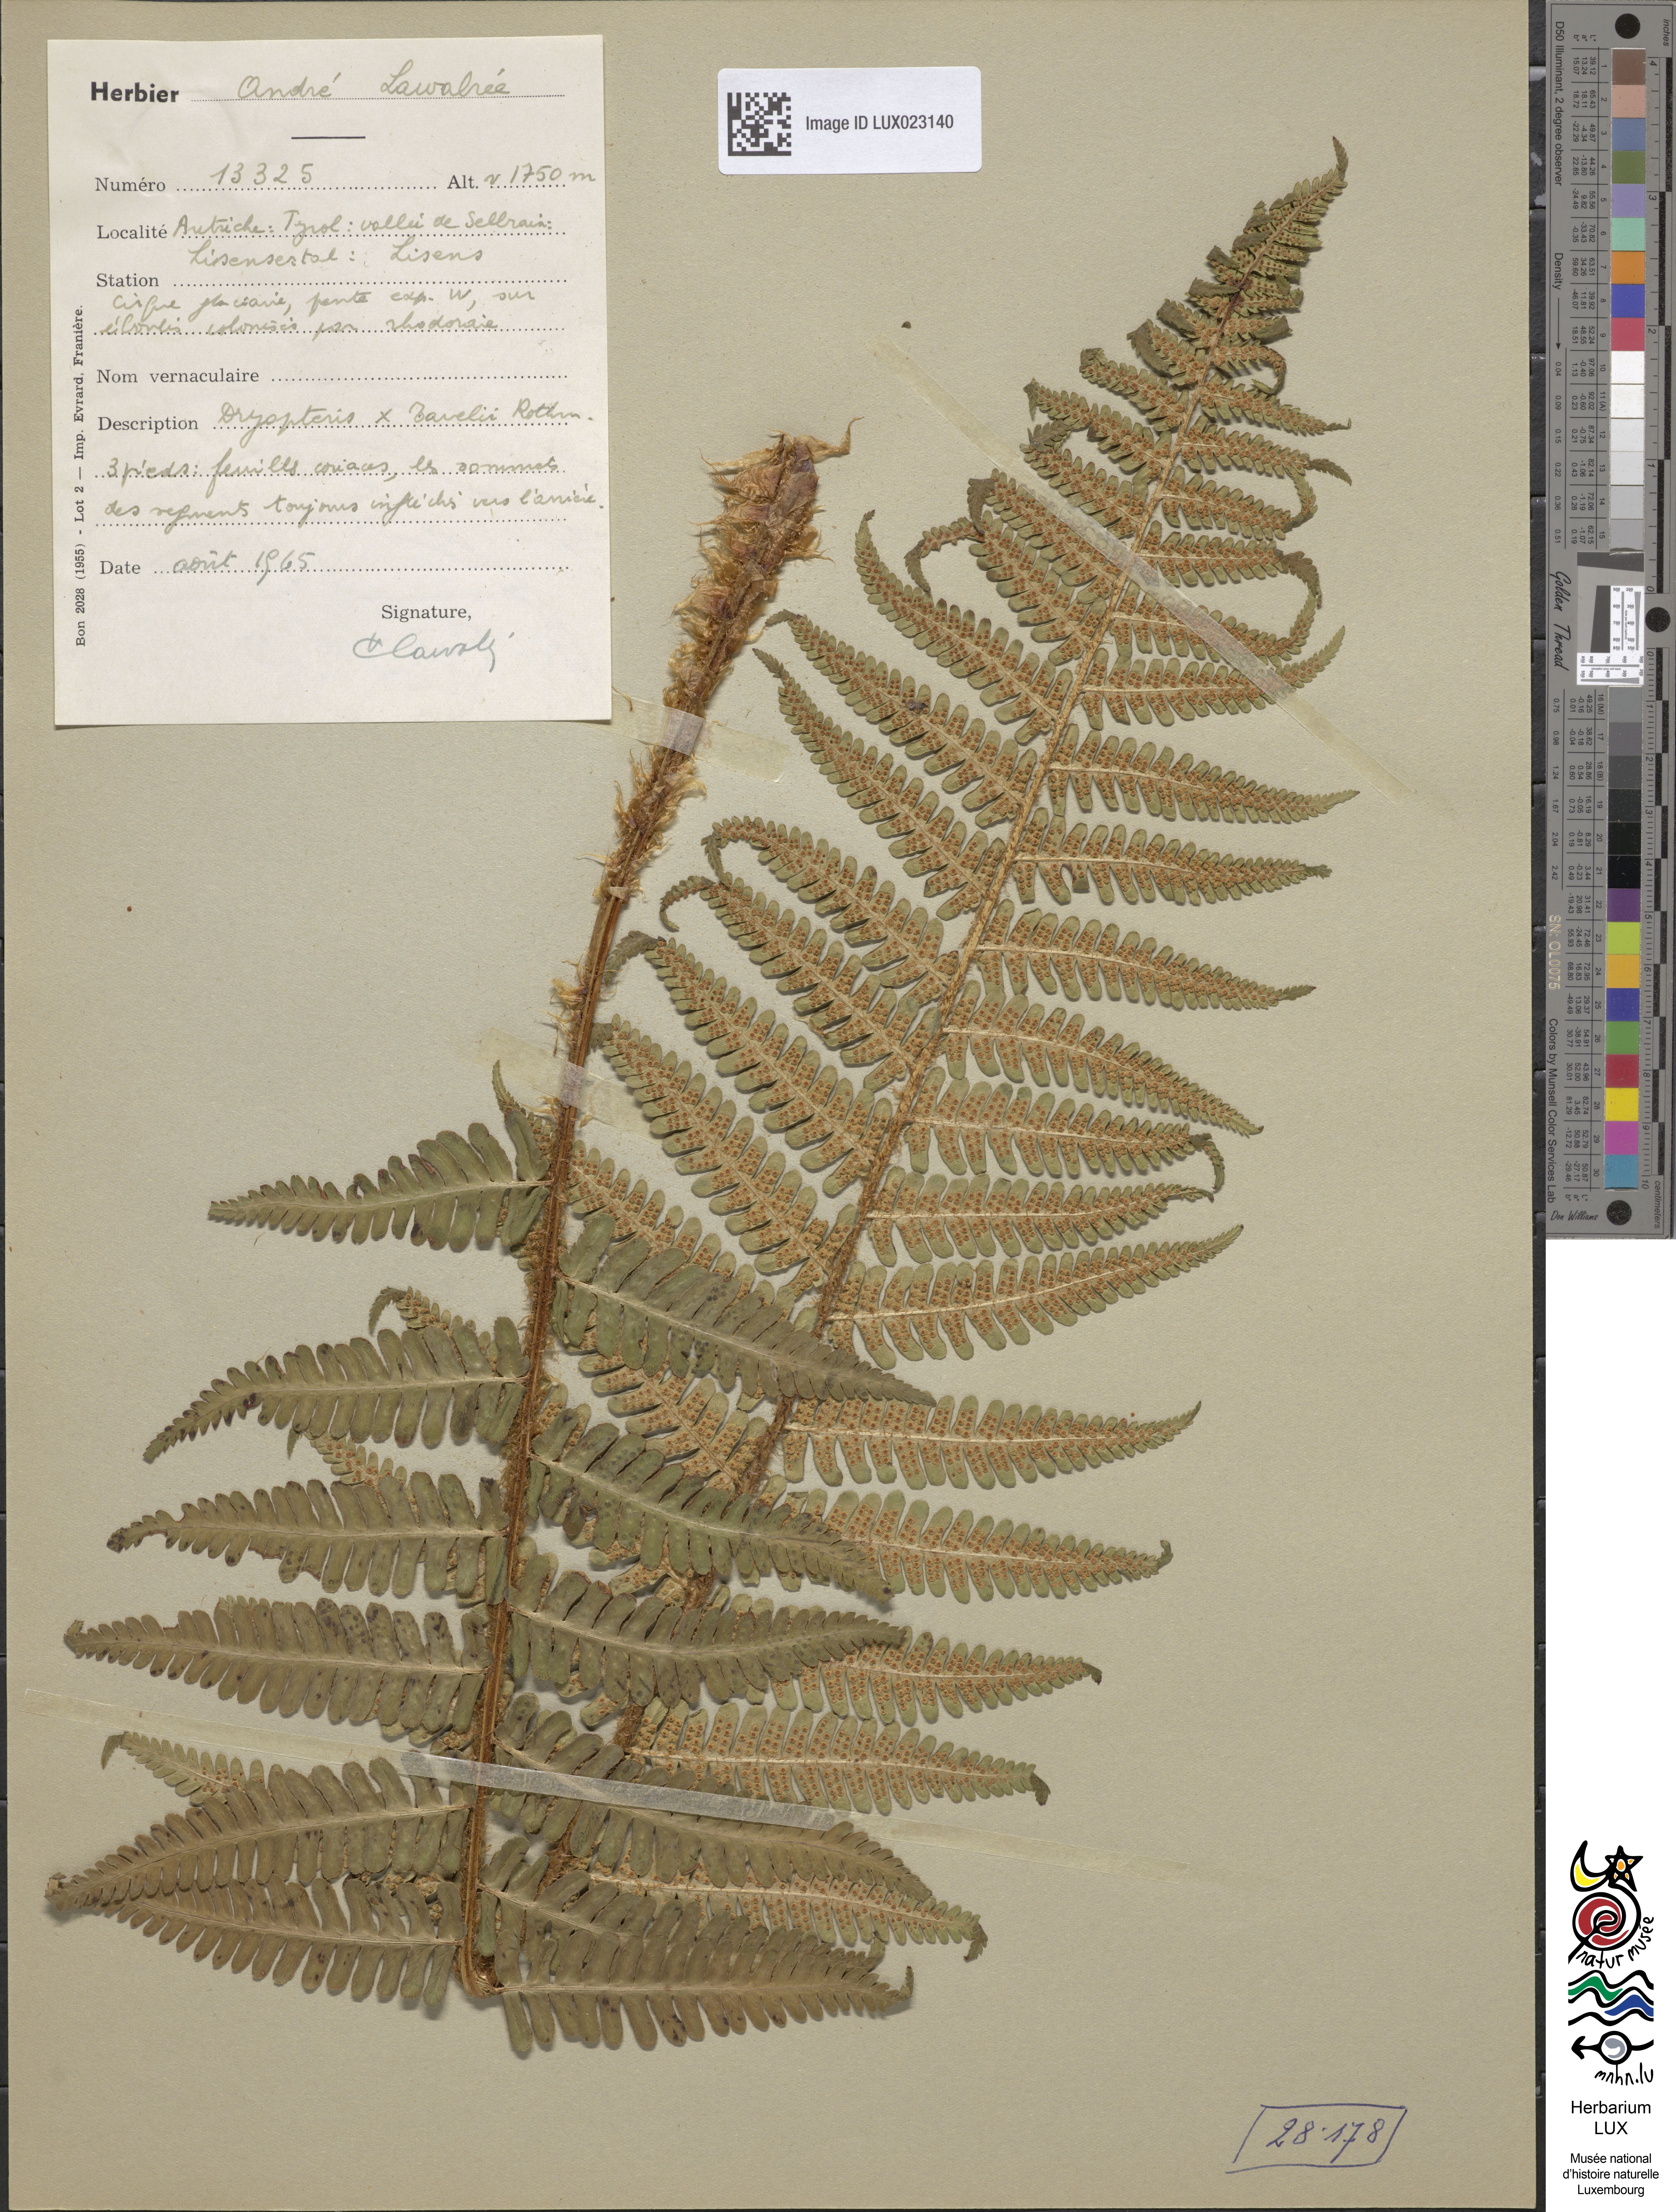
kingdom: Plantae
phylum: Tracheophyta
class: Polypodiopsida
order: Polypodiales
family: Dryopteridaceae
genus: Dryopteris
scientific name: Dryopteris borreri
